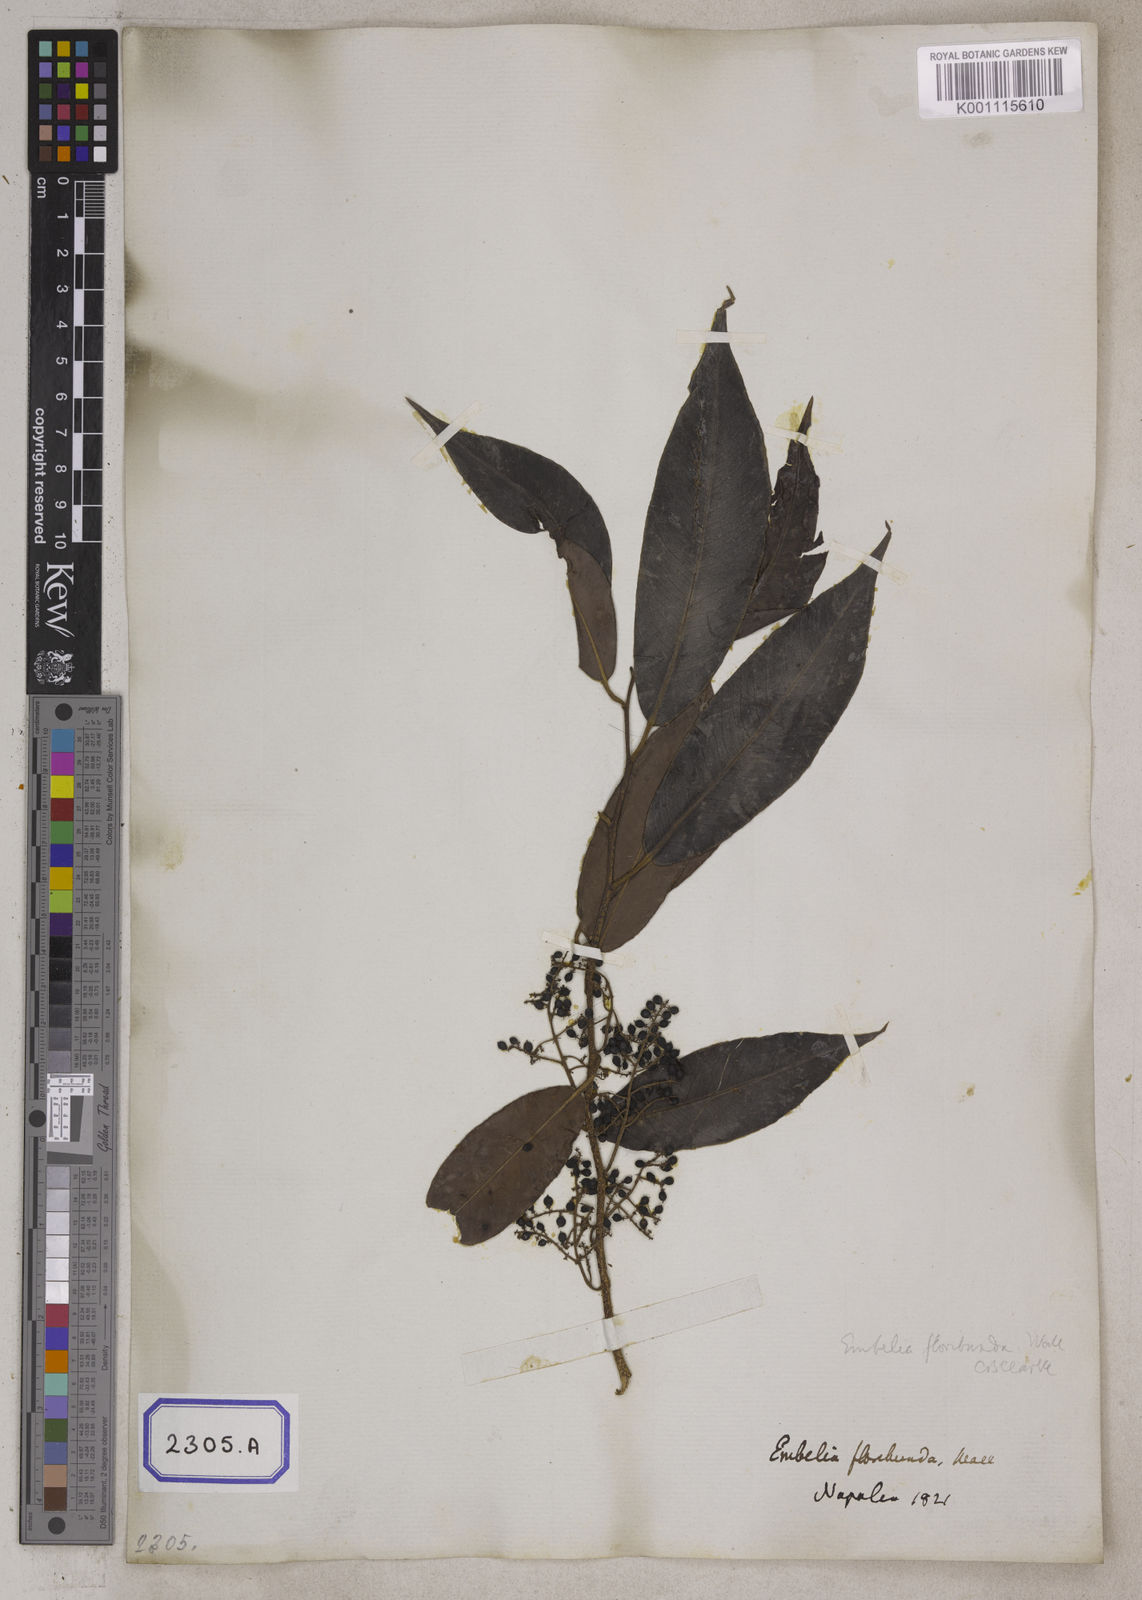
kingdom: Plantae
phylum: Tracheophyta
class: Magnoliopsida
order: Ericales
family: Primulaceae
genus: Embelia
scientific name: Embelia floribunda
